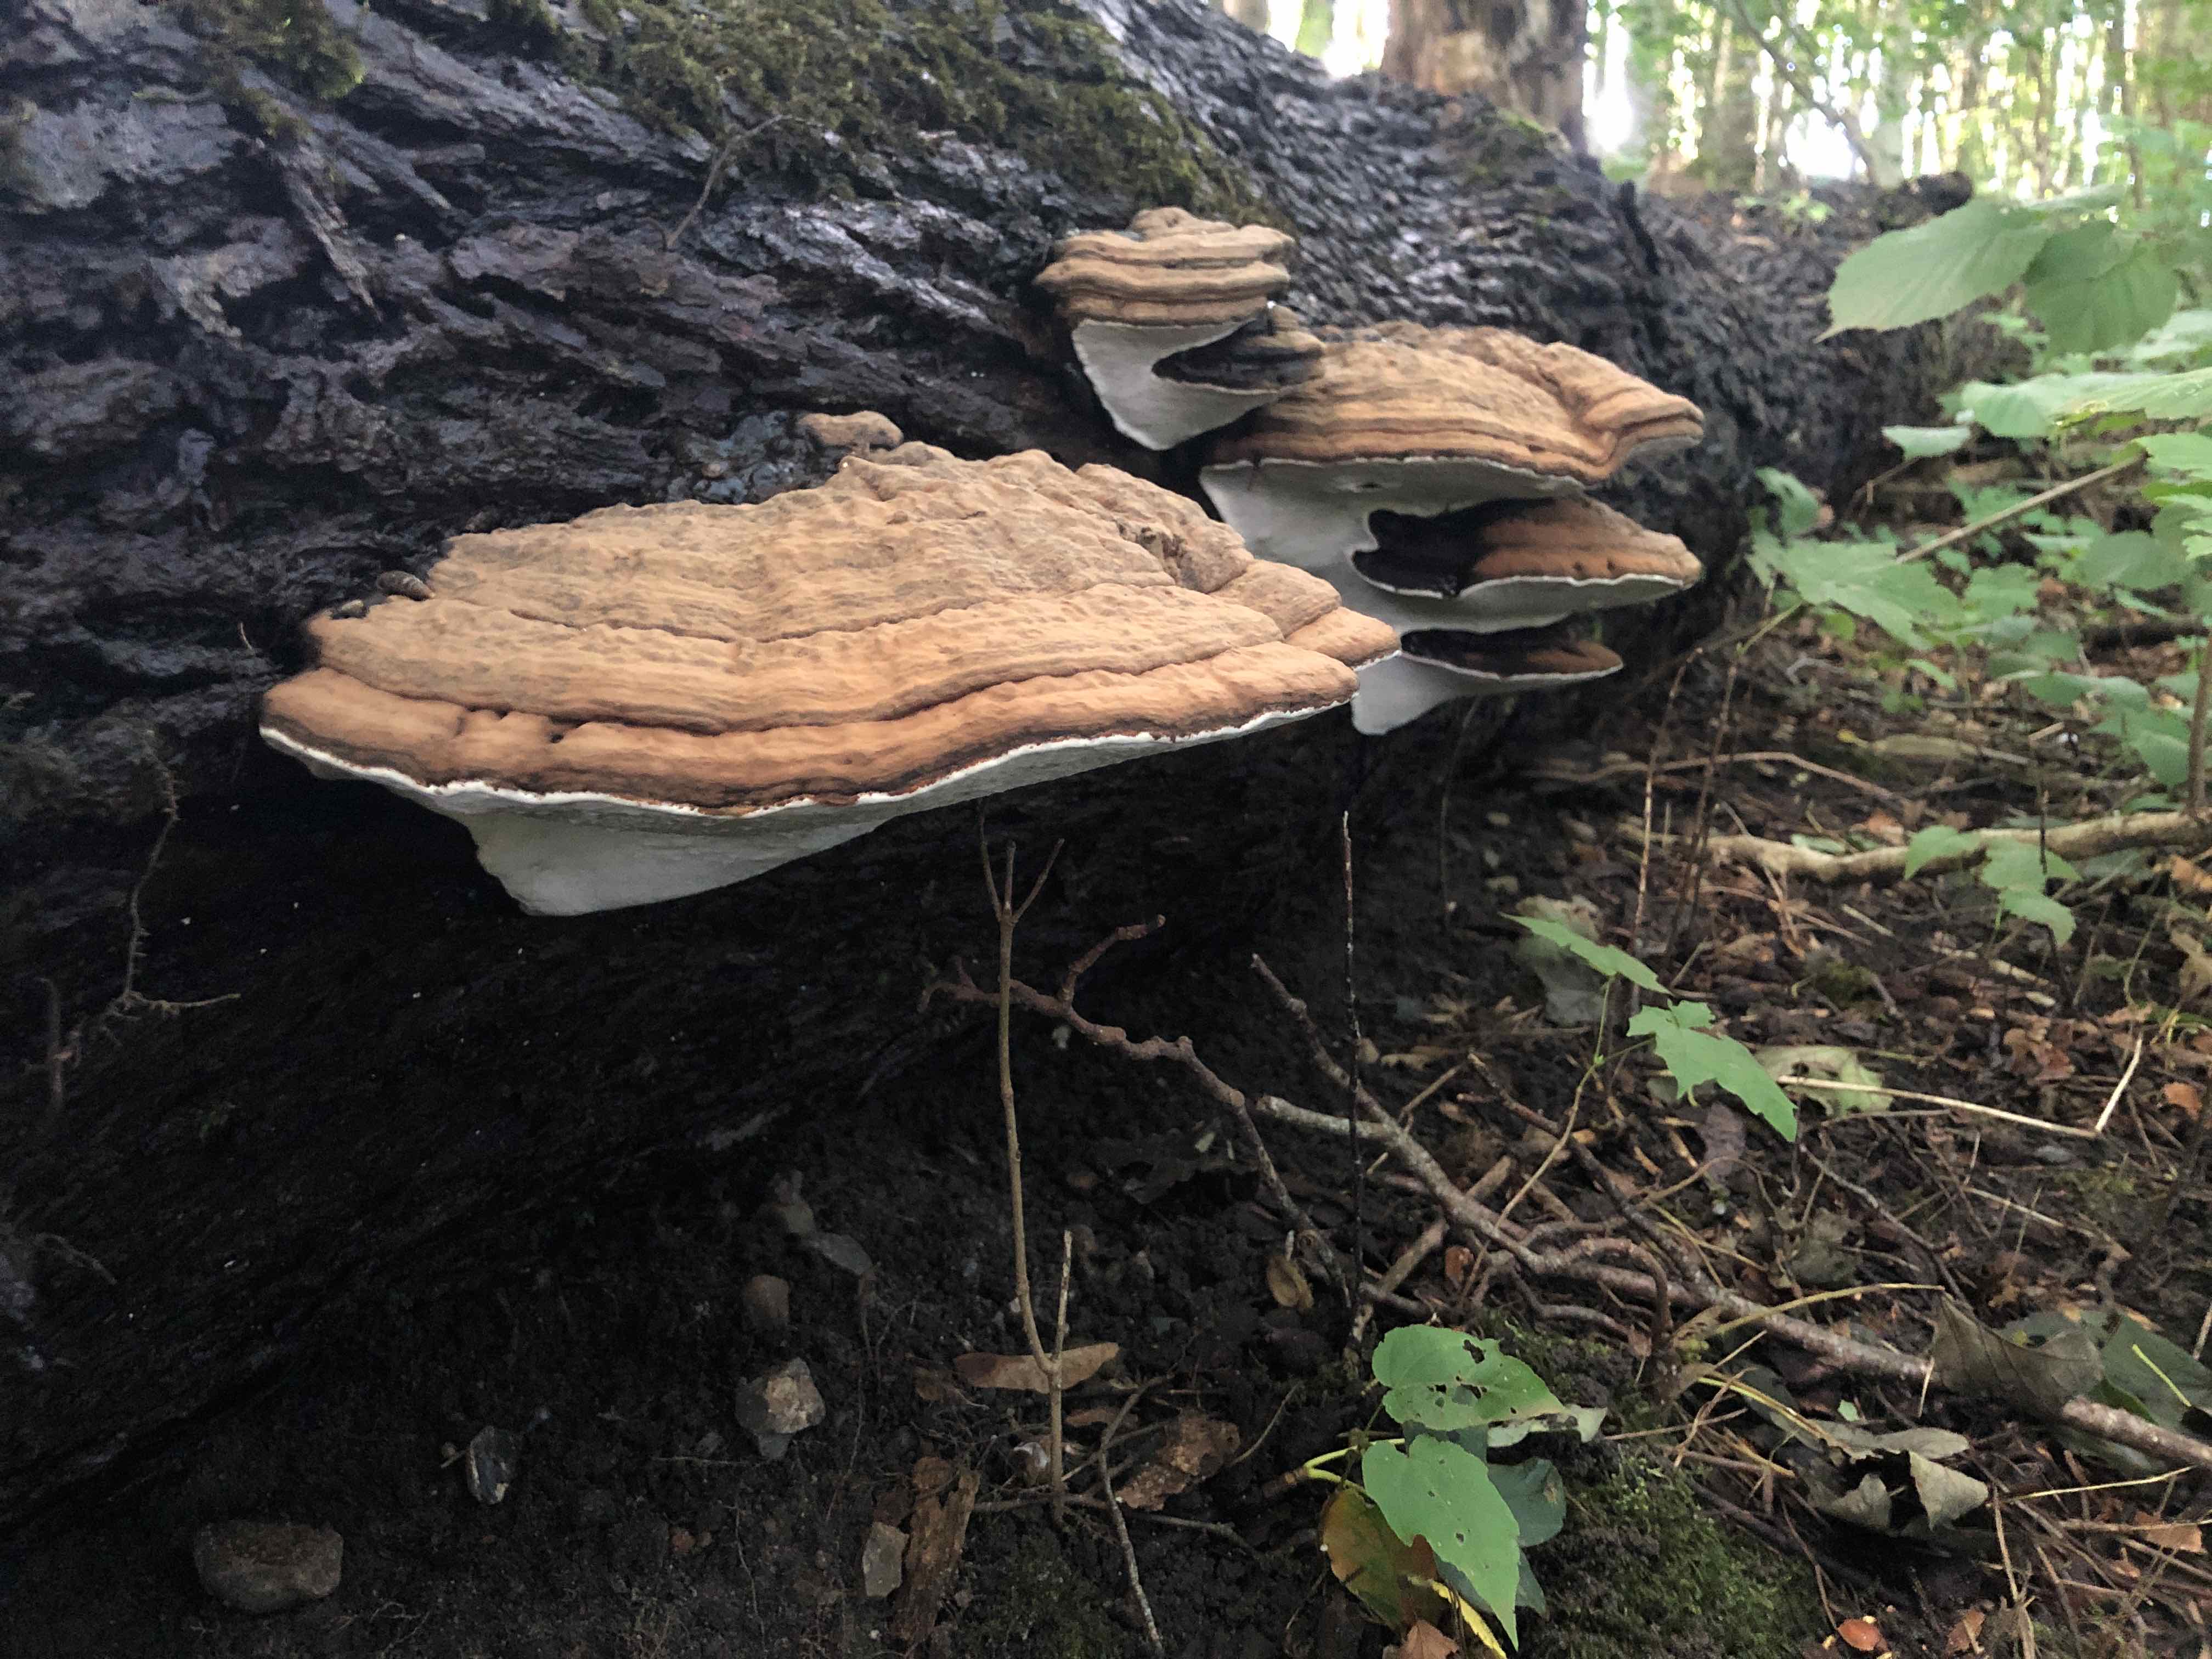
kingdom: Fungi
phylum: Basidiomycota
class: Agaricomycetes
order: Polyporales
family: Polyporaceae
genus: Ganoderma
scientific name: Ganoderma applanatum
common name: flad lakporesvamp
